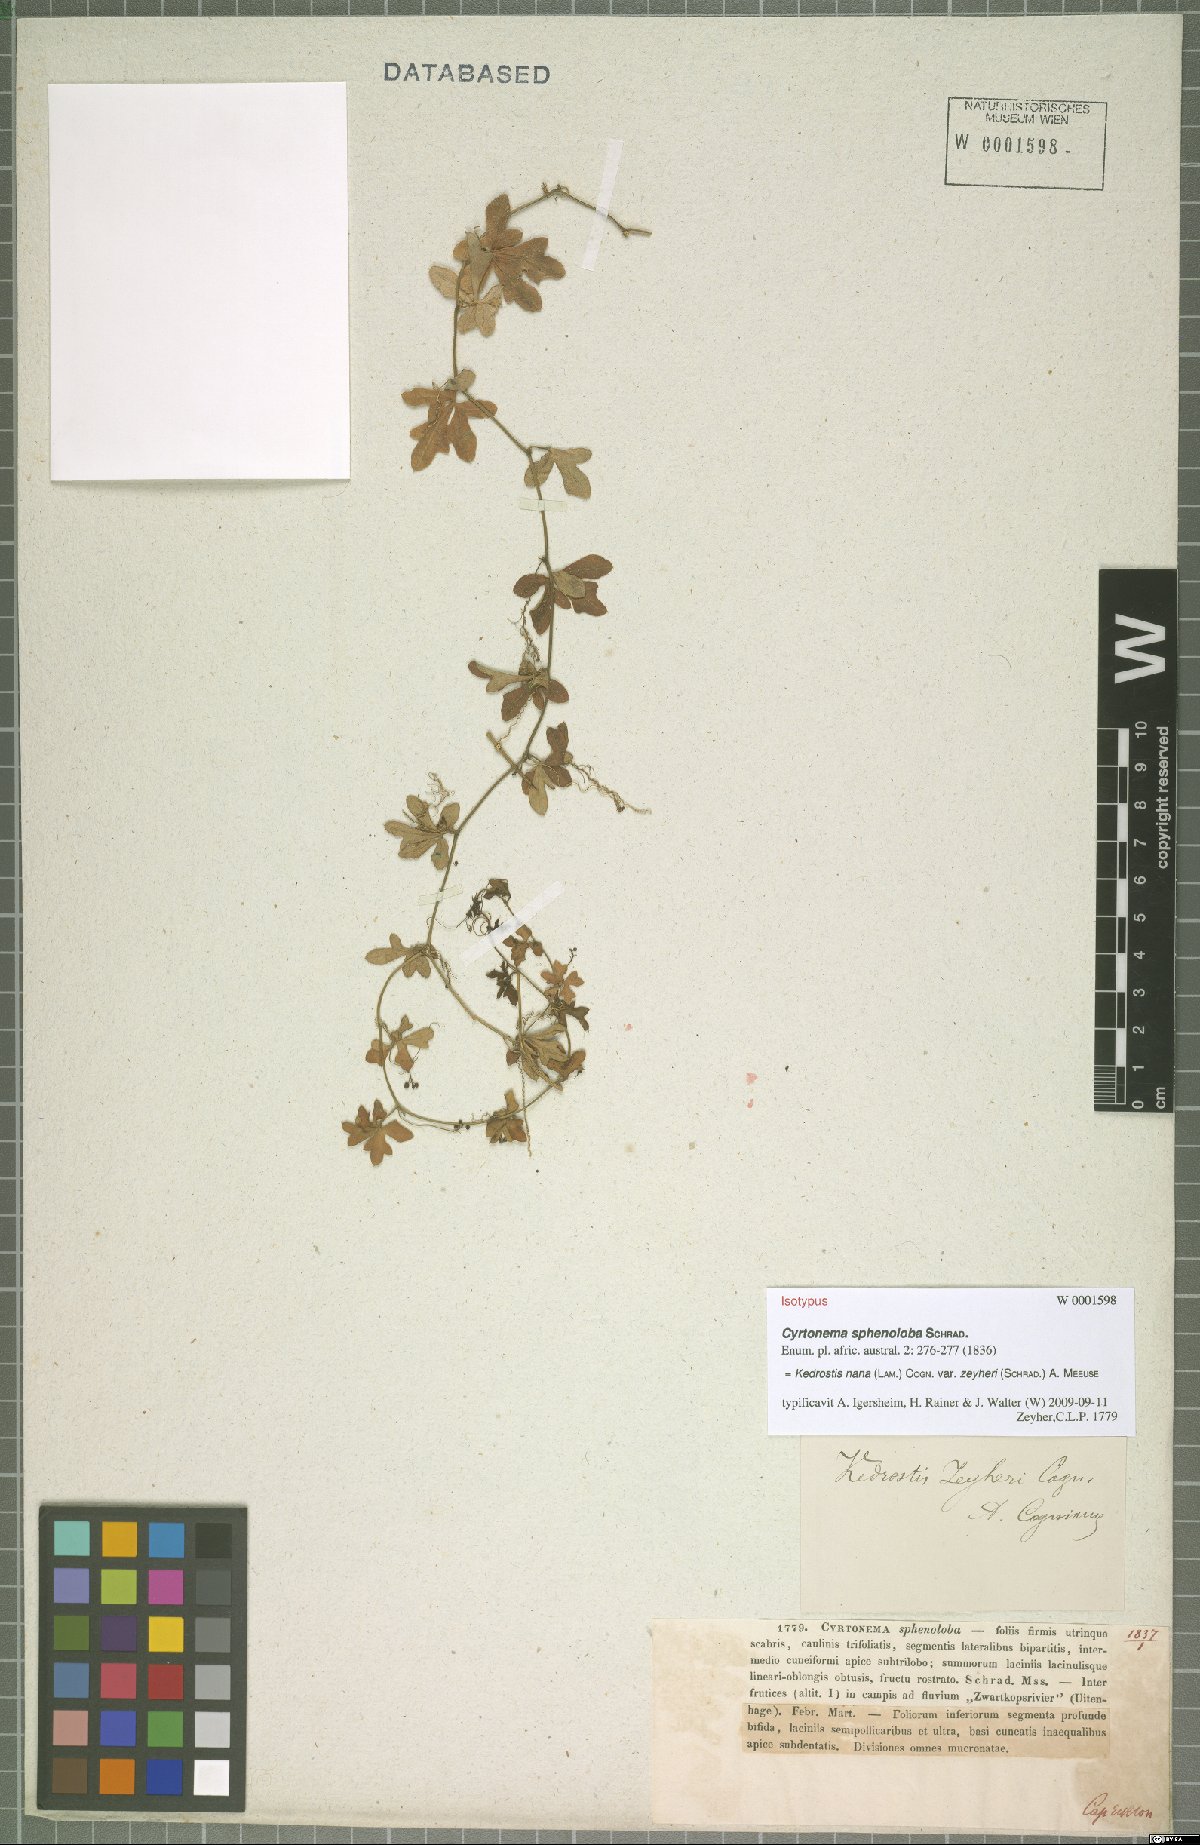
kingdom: Plantae
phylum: Tracheophyta
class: Magnoliopsida
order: Cucurbitales
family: Cucurbitaceae
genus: Kedrostis
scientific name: Kedrostis nana
